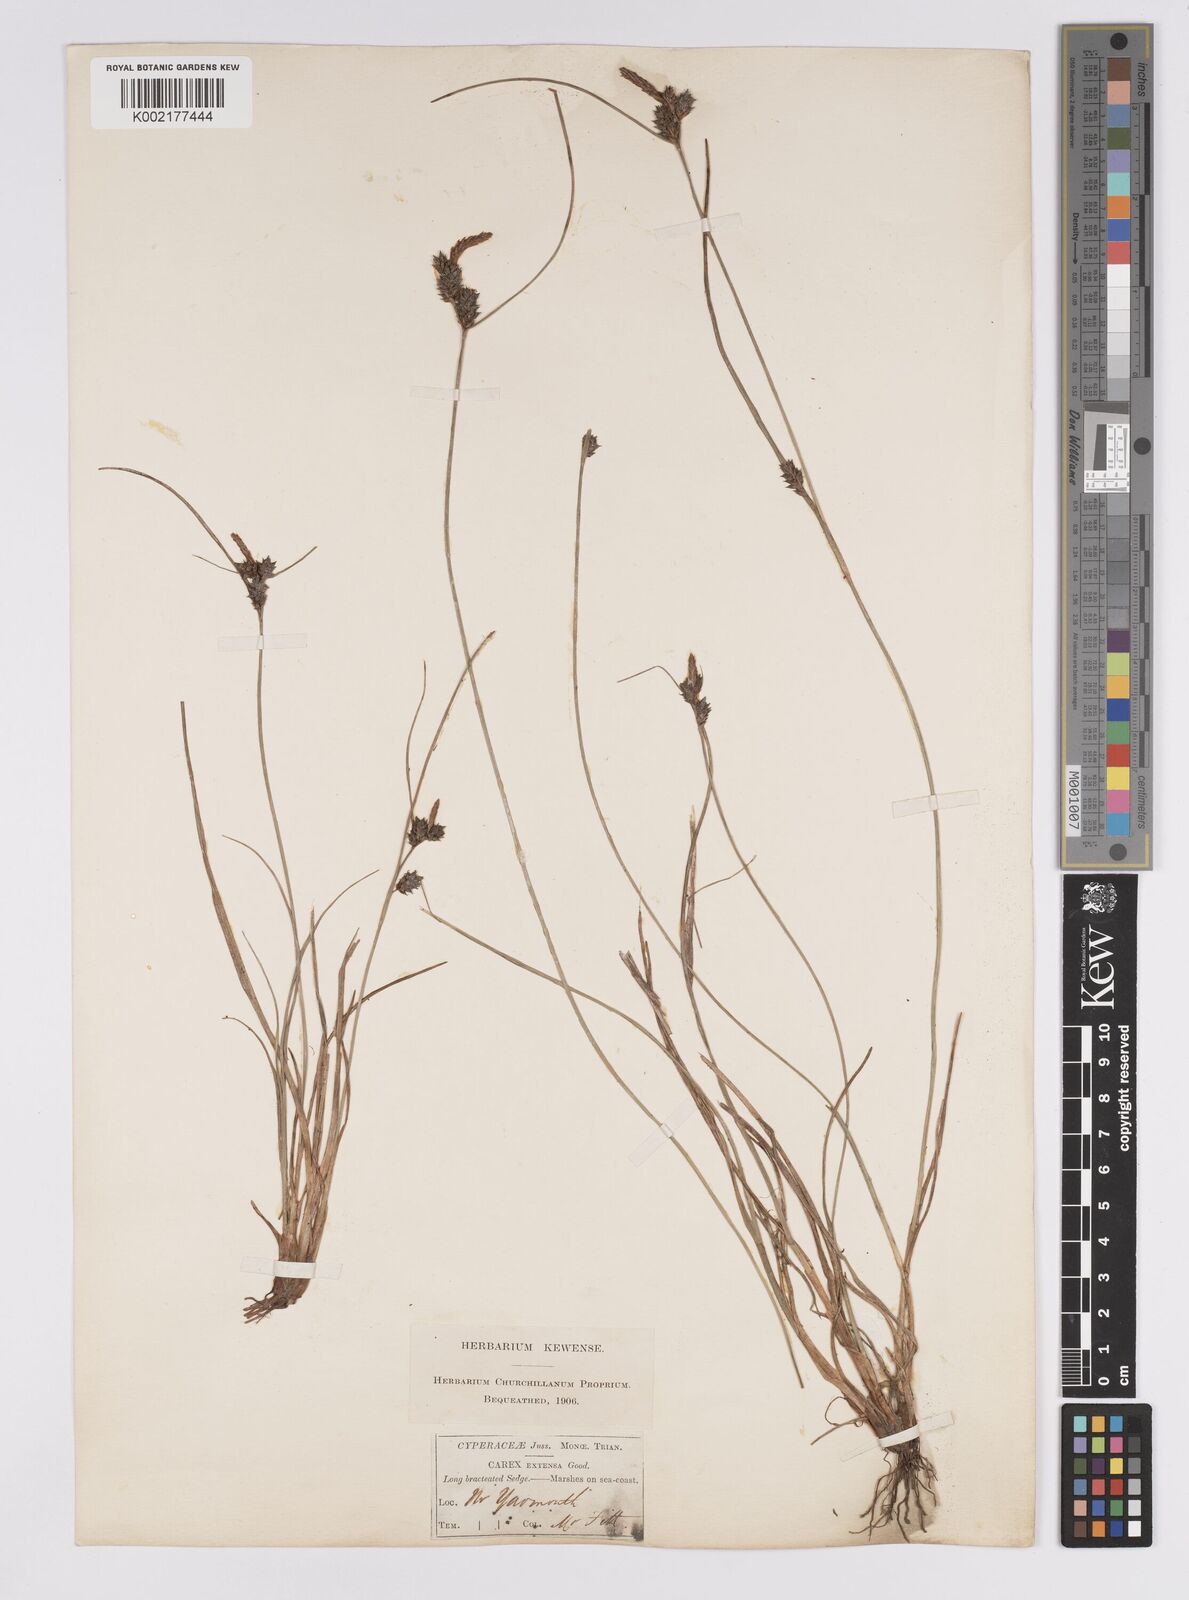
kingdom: Plantae
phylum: Tracheophyta
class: Liliopsida
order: Poales
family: Cyperaceae
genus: Carex
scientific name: Carex extensa
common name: Long-bracted sedge
